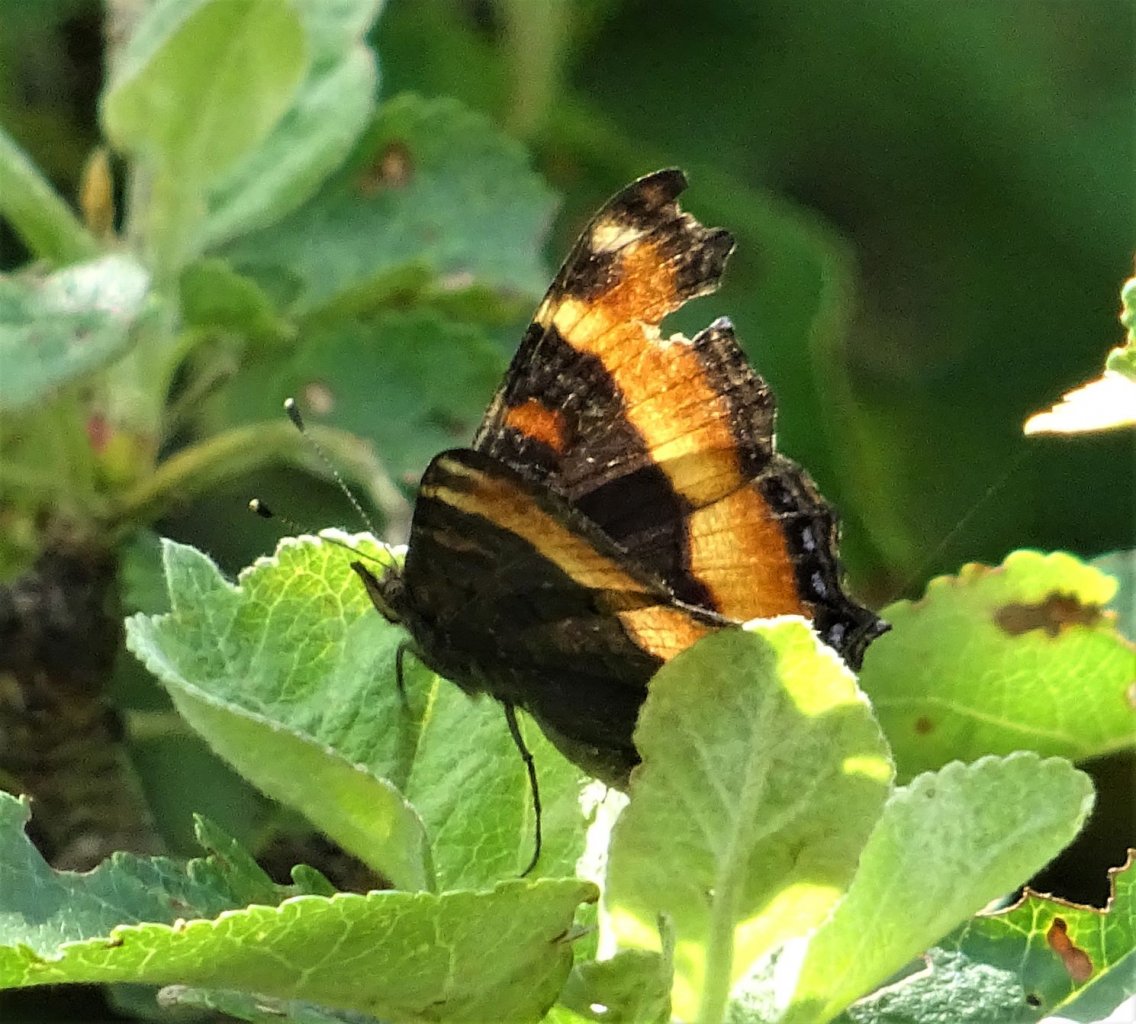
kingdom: Animalia
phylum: Arthropoda
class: Insecta
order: Lepidoptera
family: Nymphalidae
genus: Aglais
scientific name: Aglais milberti
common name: Milbert's Tortoiseshell
